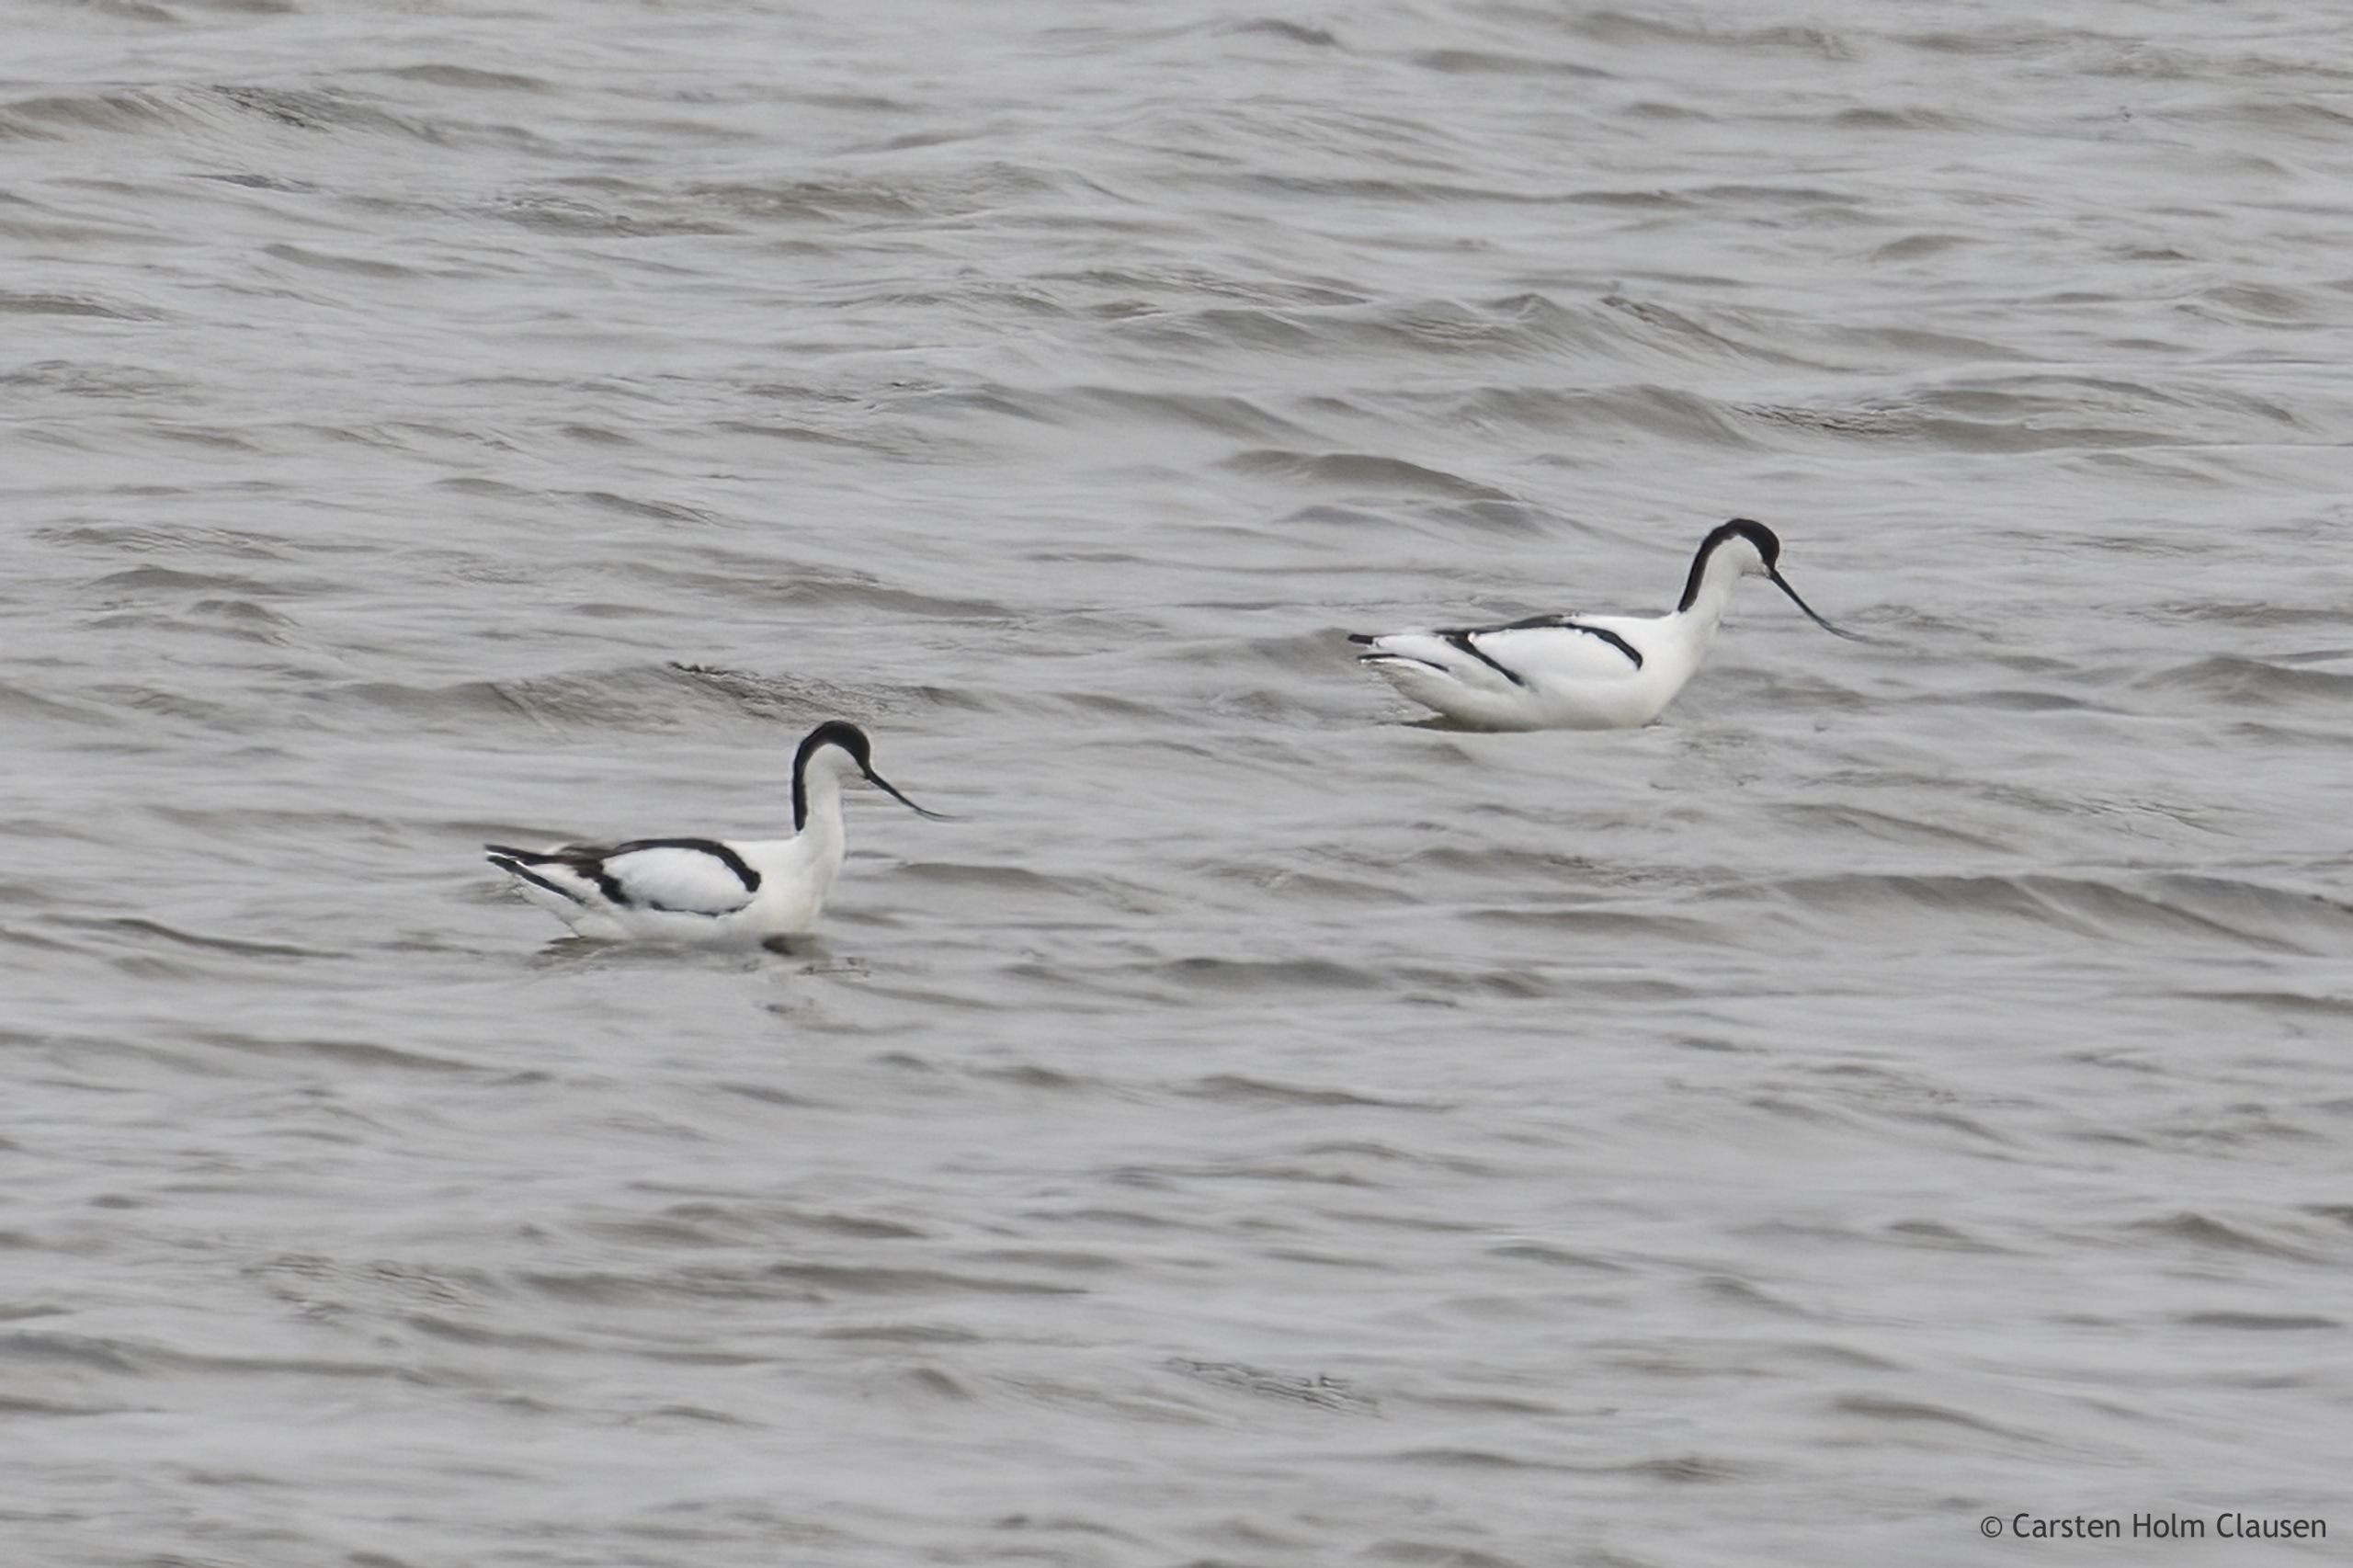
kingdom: Animalia
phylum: Chordata
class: Aves
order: Charadriiformes
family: Recurvirostridae
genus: Recurvirostra
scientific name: Recurvirostra avosetta
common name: Klyde
